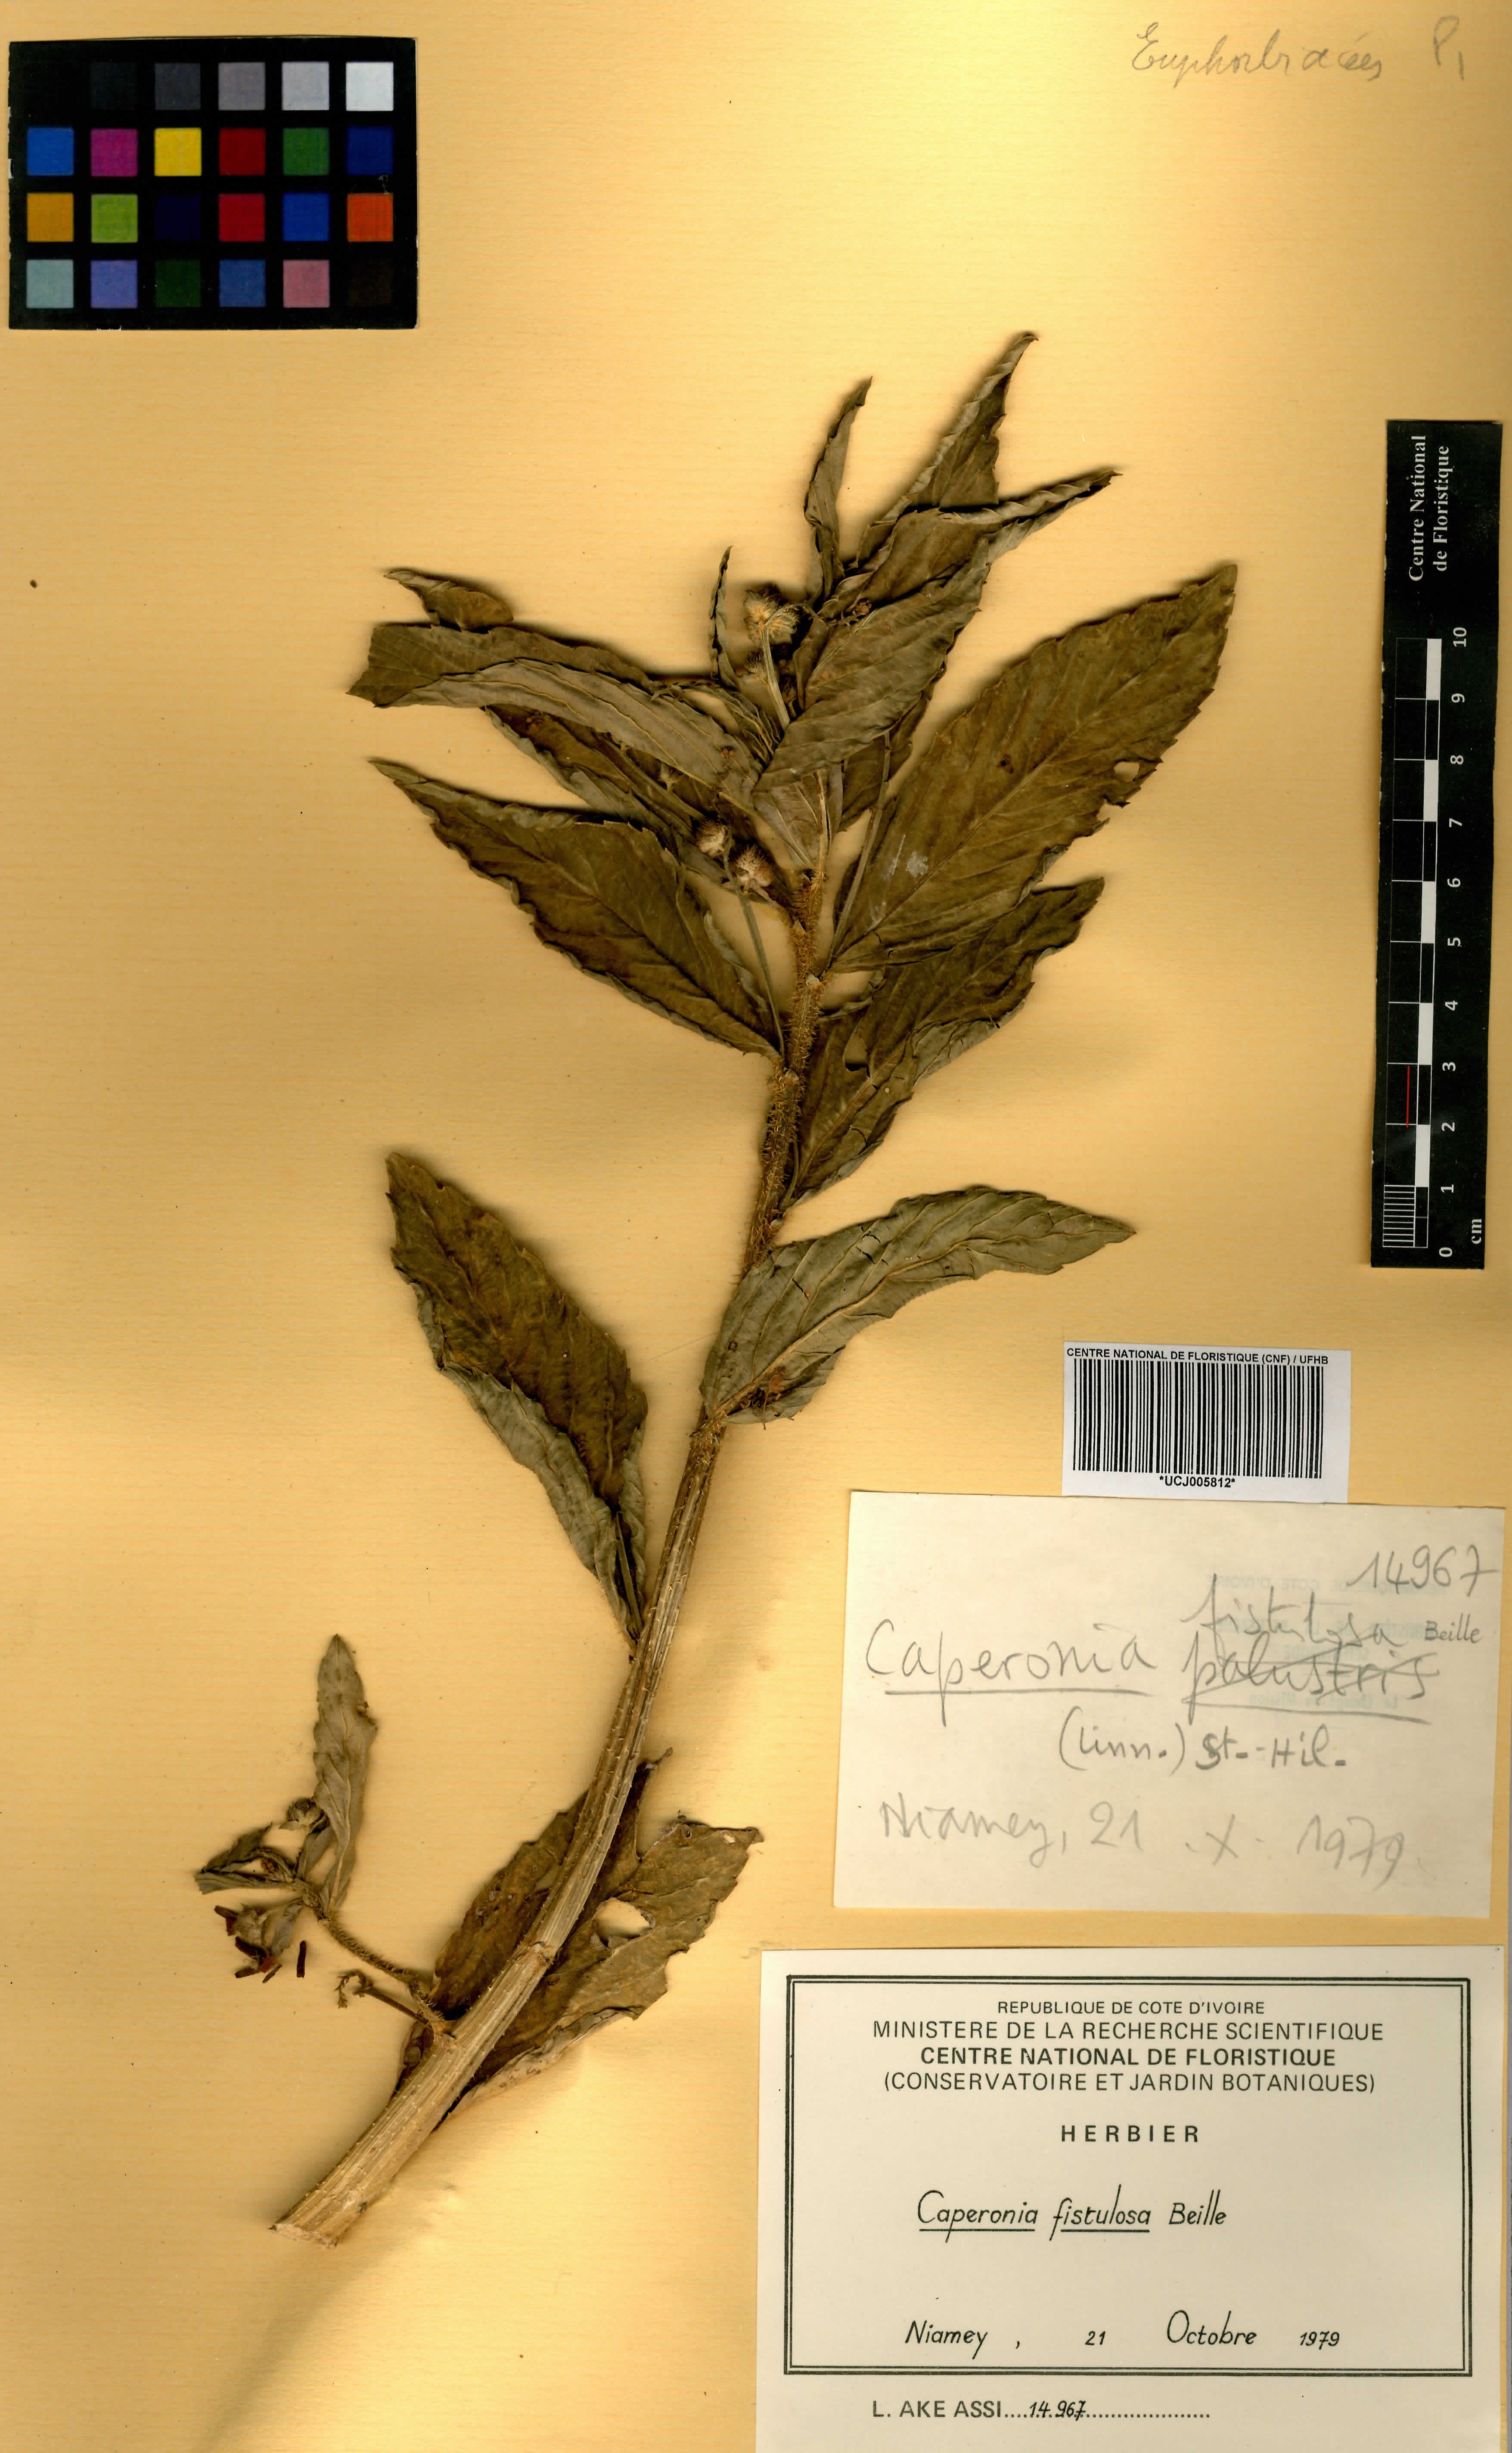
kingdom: Plantae
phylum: Tracheophyta
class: Magnoliopsida
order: Malpighiales
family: Euphorbiaceae
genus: Caperonia
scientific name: Caperonia fistulosa
